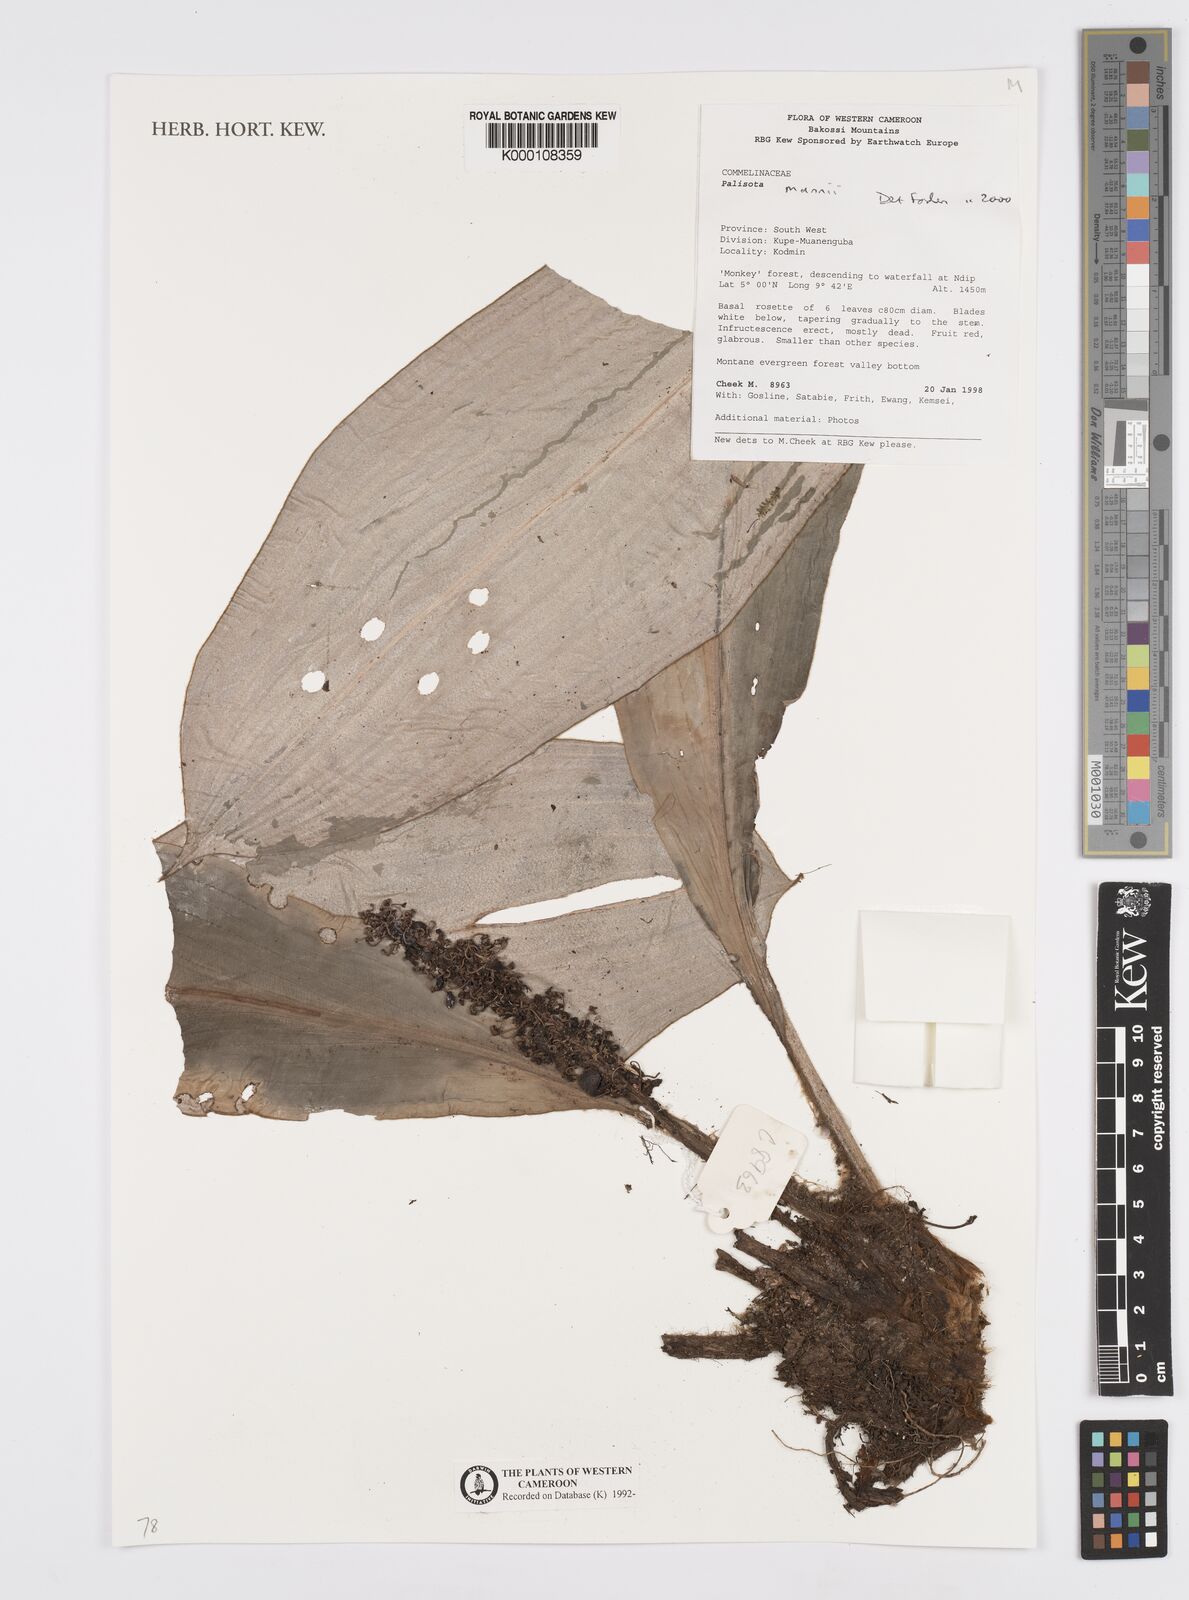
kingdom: Plantae
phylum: Tracheophyta
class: Liliopsida
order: Commelinales
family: Commelinaceae
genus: Palisota
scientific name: Palisota mannii
